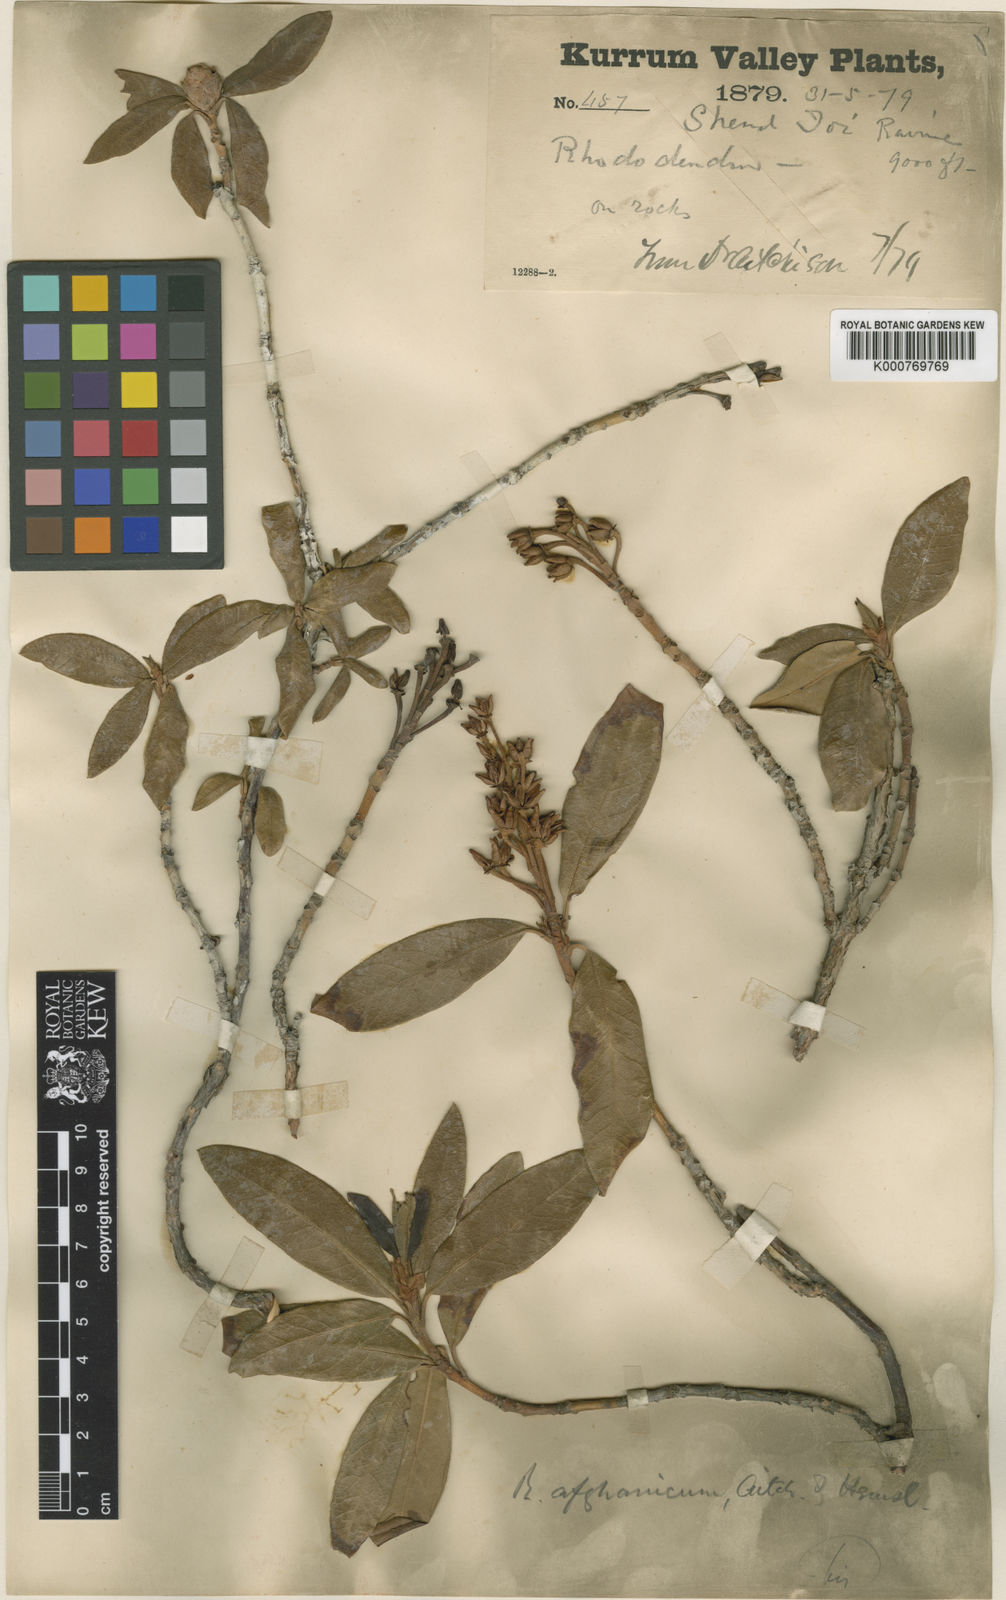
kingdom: Plantae
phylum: Tracheophyta
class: Magnoliopsida
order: Ericales
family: Ericaceae
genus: Rhododendron
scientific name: Rhododendron afghanicum
